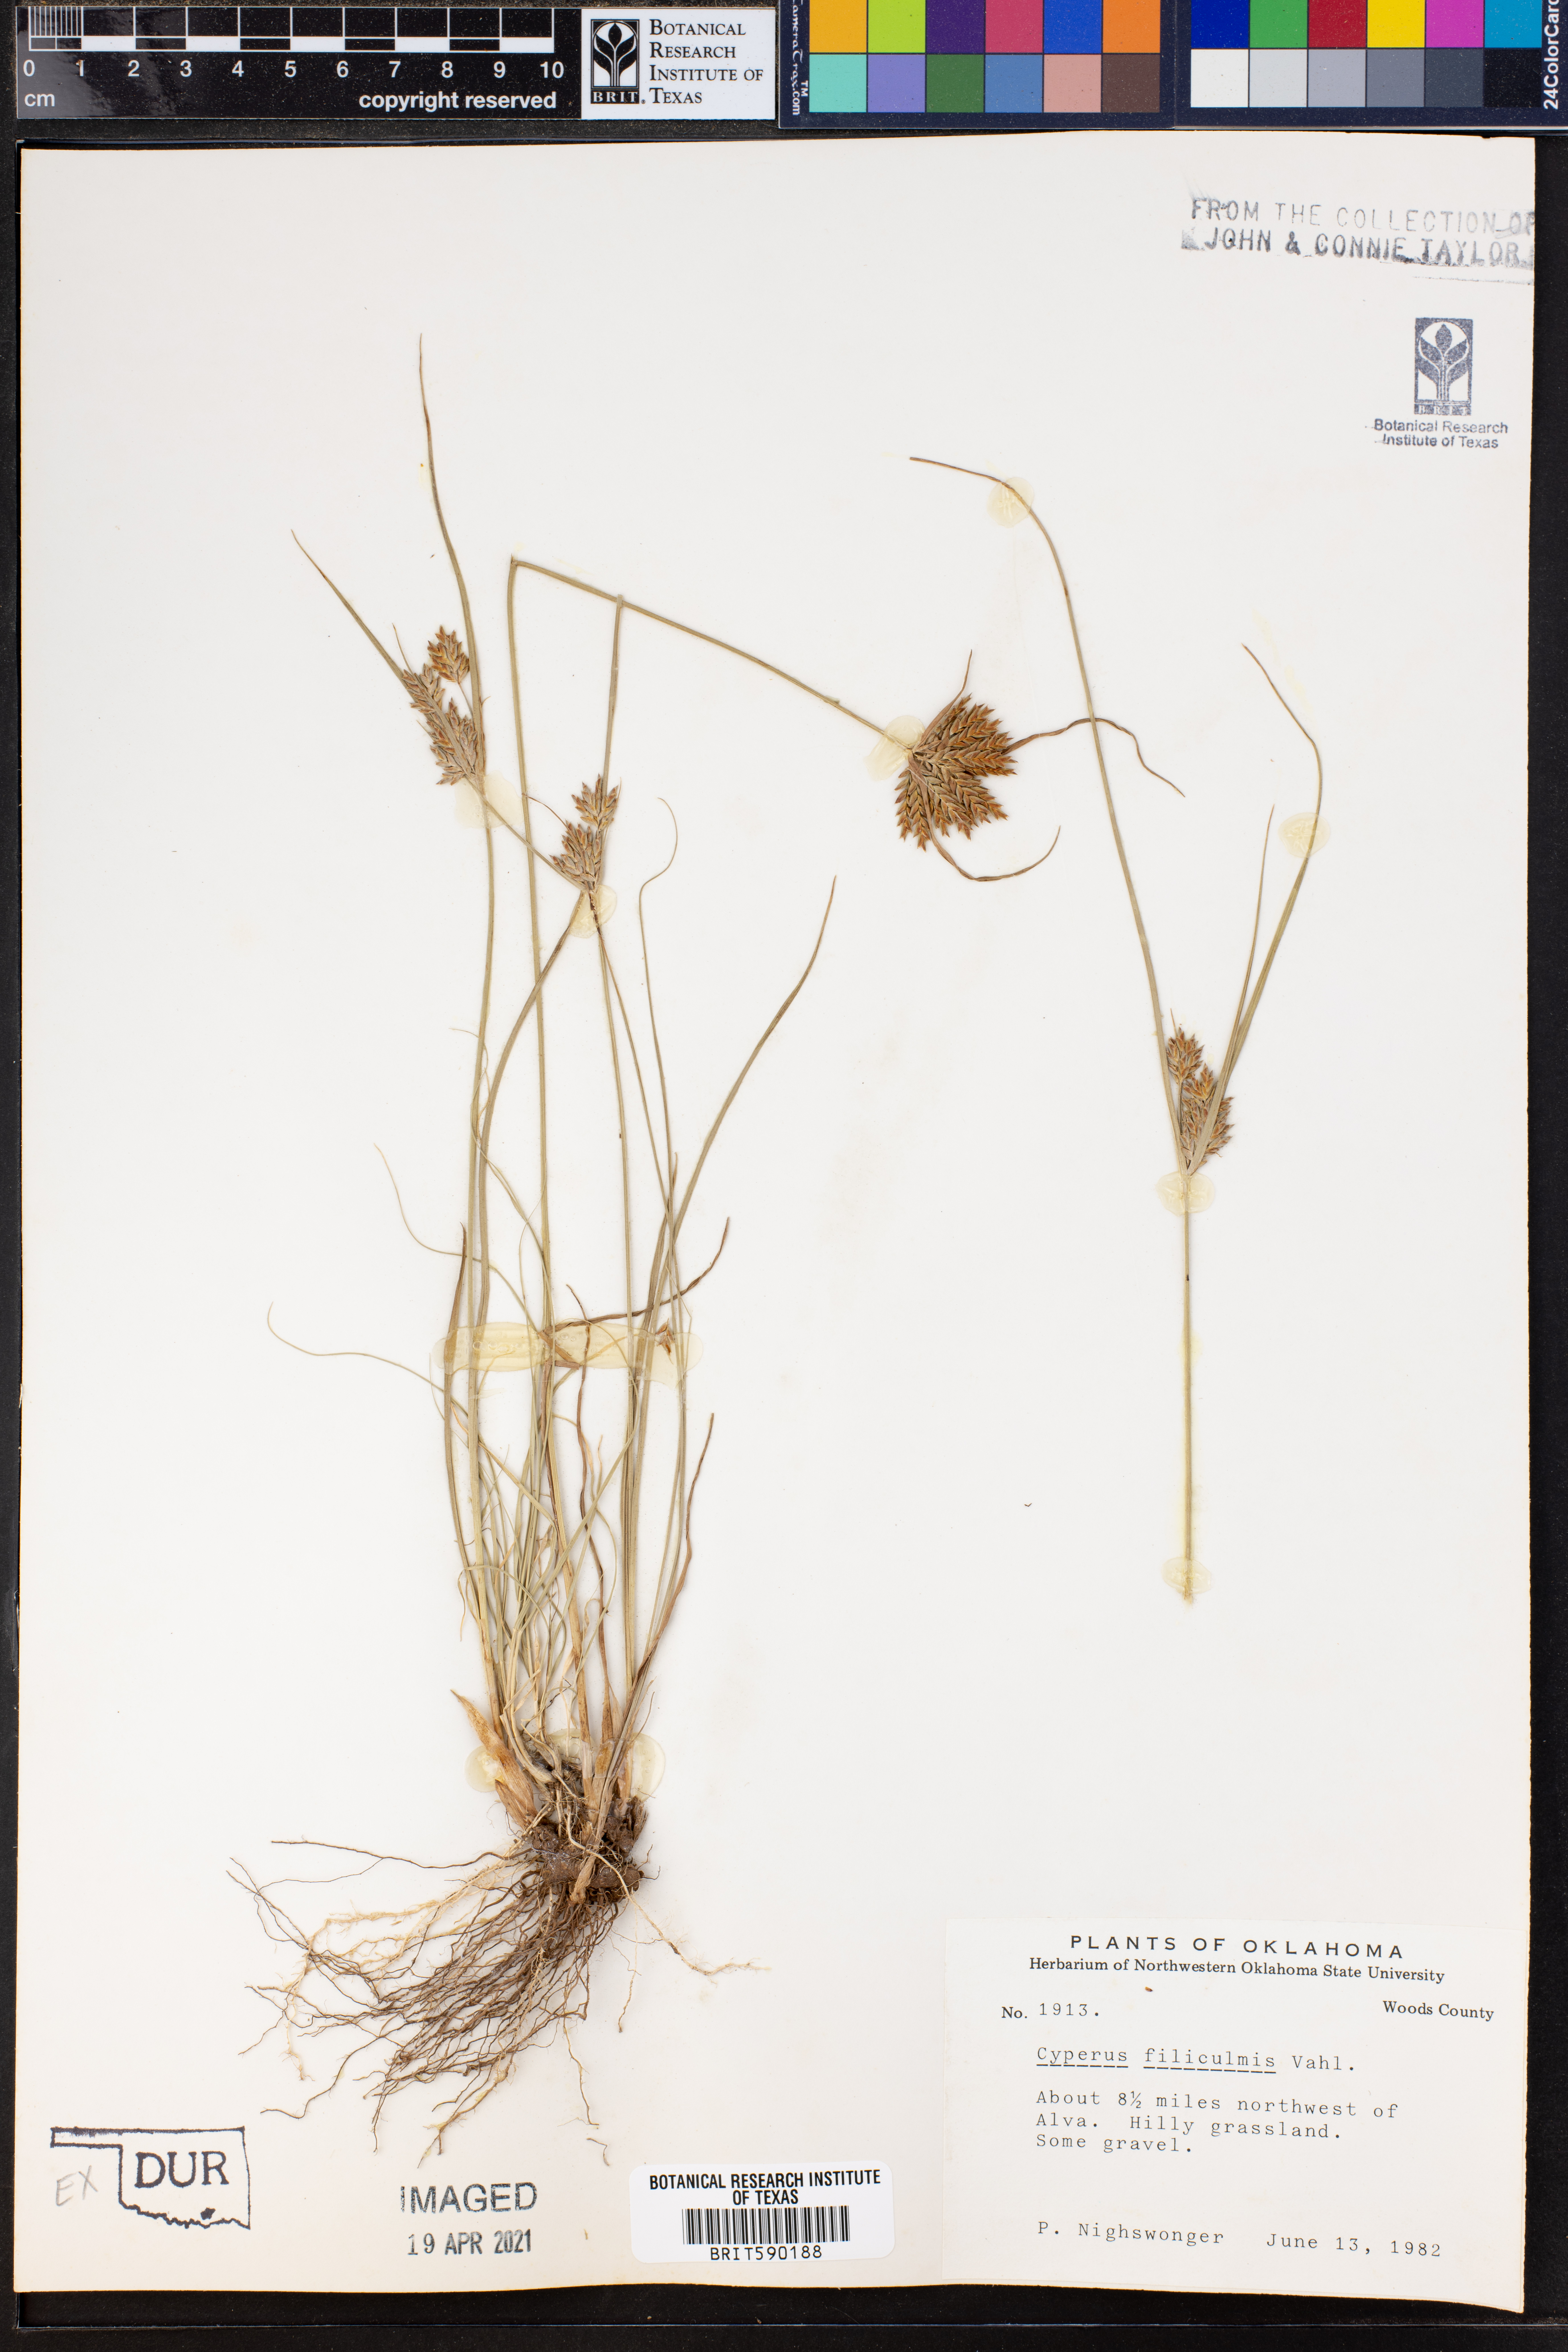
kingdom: Plantae
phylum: Tracheophyta
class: Liliopsida
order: Poales
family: Cyperaceae
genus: Cyperus
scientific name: Cyperus lanceolatus
